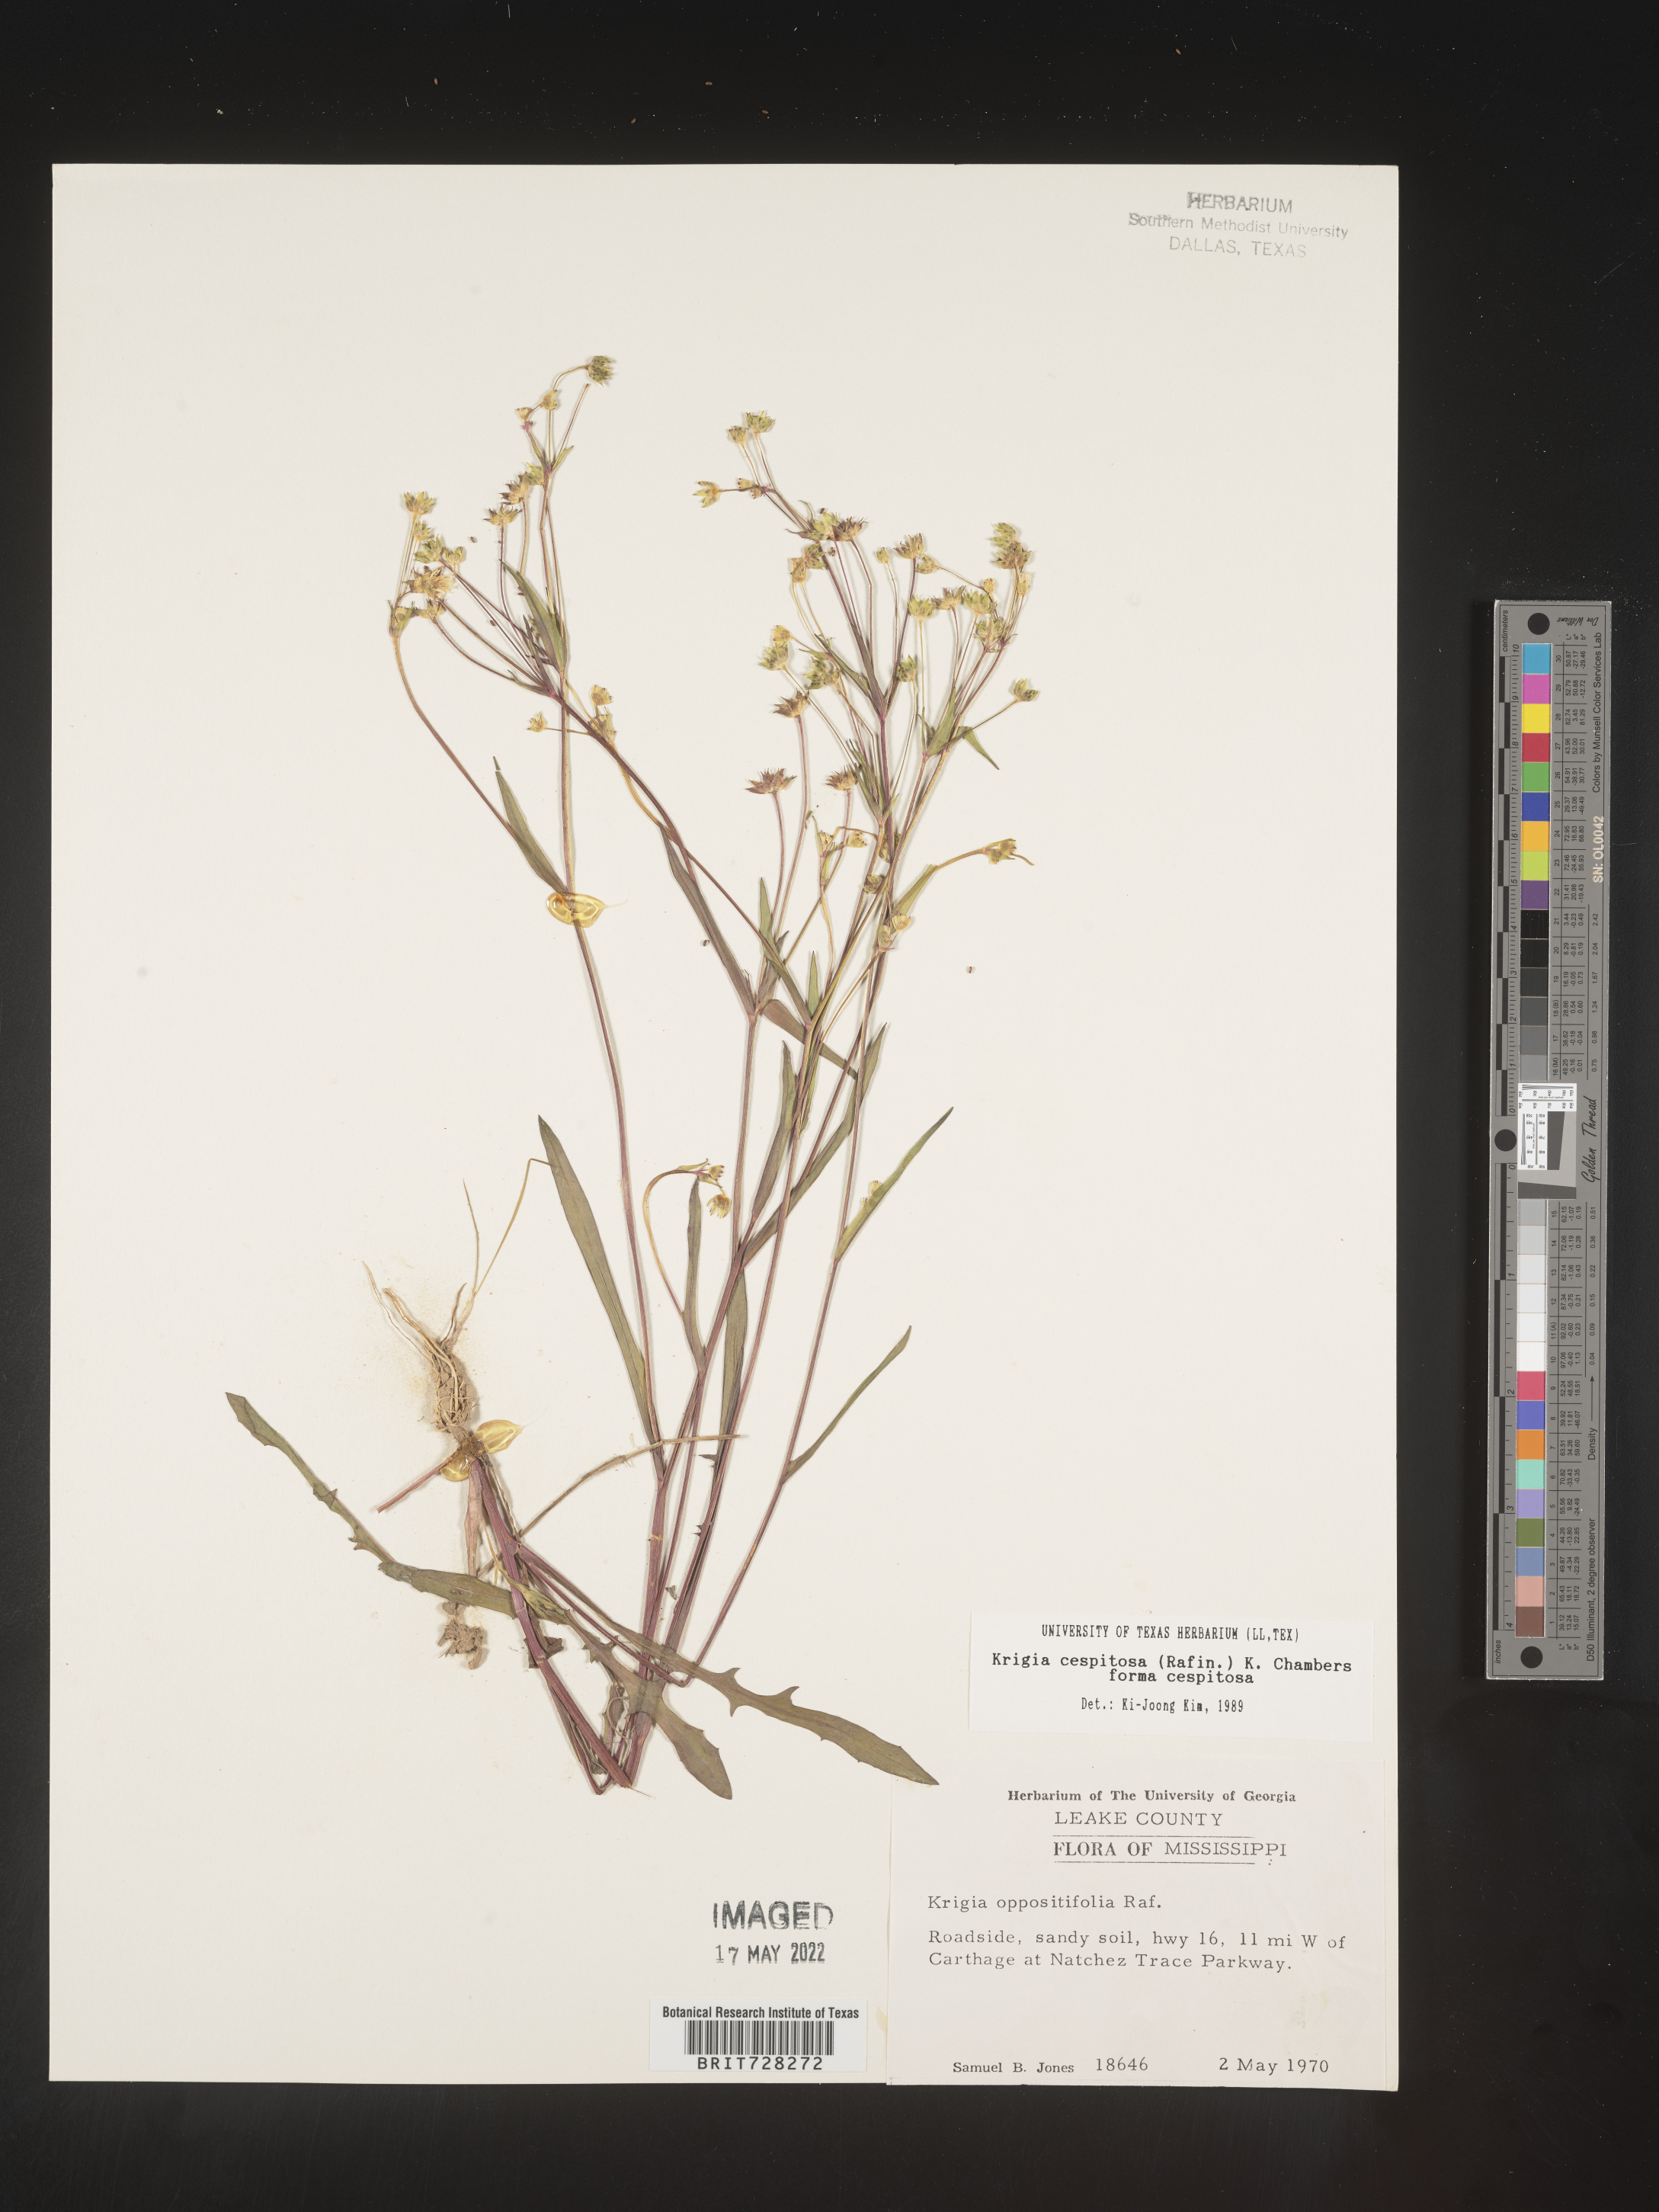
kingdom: Plantae
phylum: Tracheophyta
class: Magnoliopsida
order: Asterales
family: Asteraceae
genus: Krigia
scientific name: Krigia caespitosa
